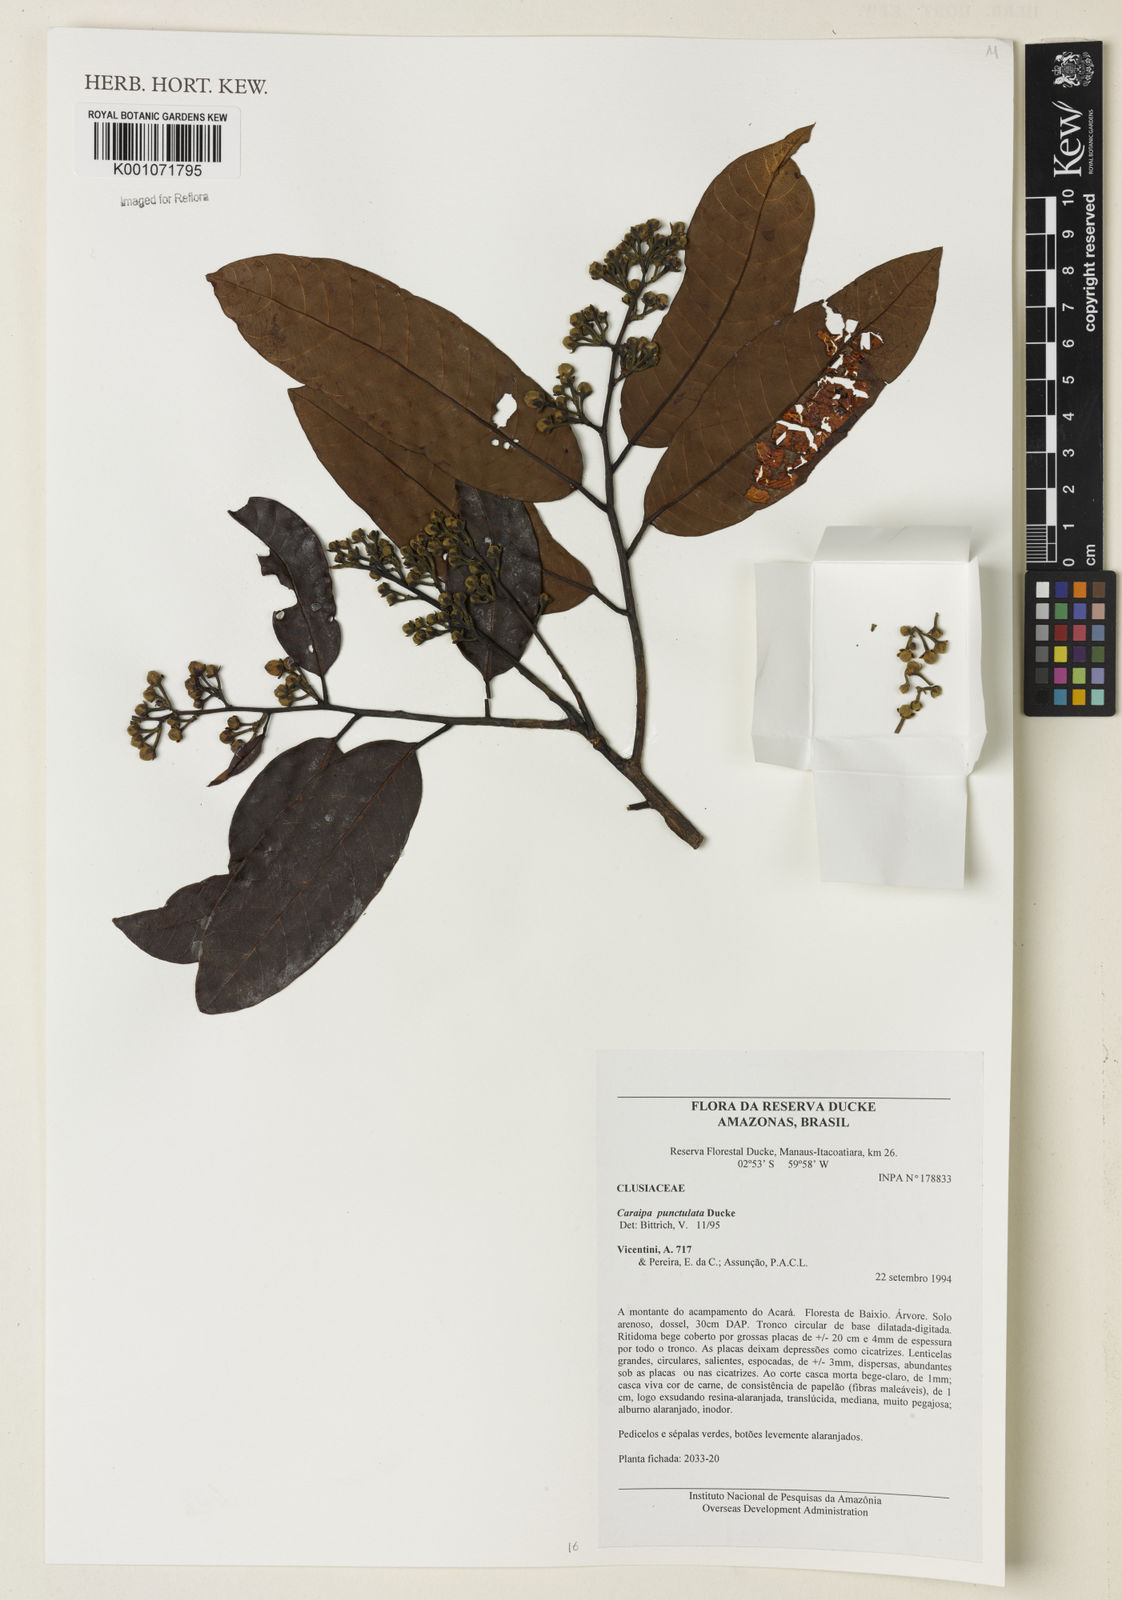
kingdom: Plantae
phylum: Tracheophyta
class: Magnoliopsida
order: Malpighiales
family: Calophyllaceae
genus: Caraipa
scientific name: Caraipa punctulata
